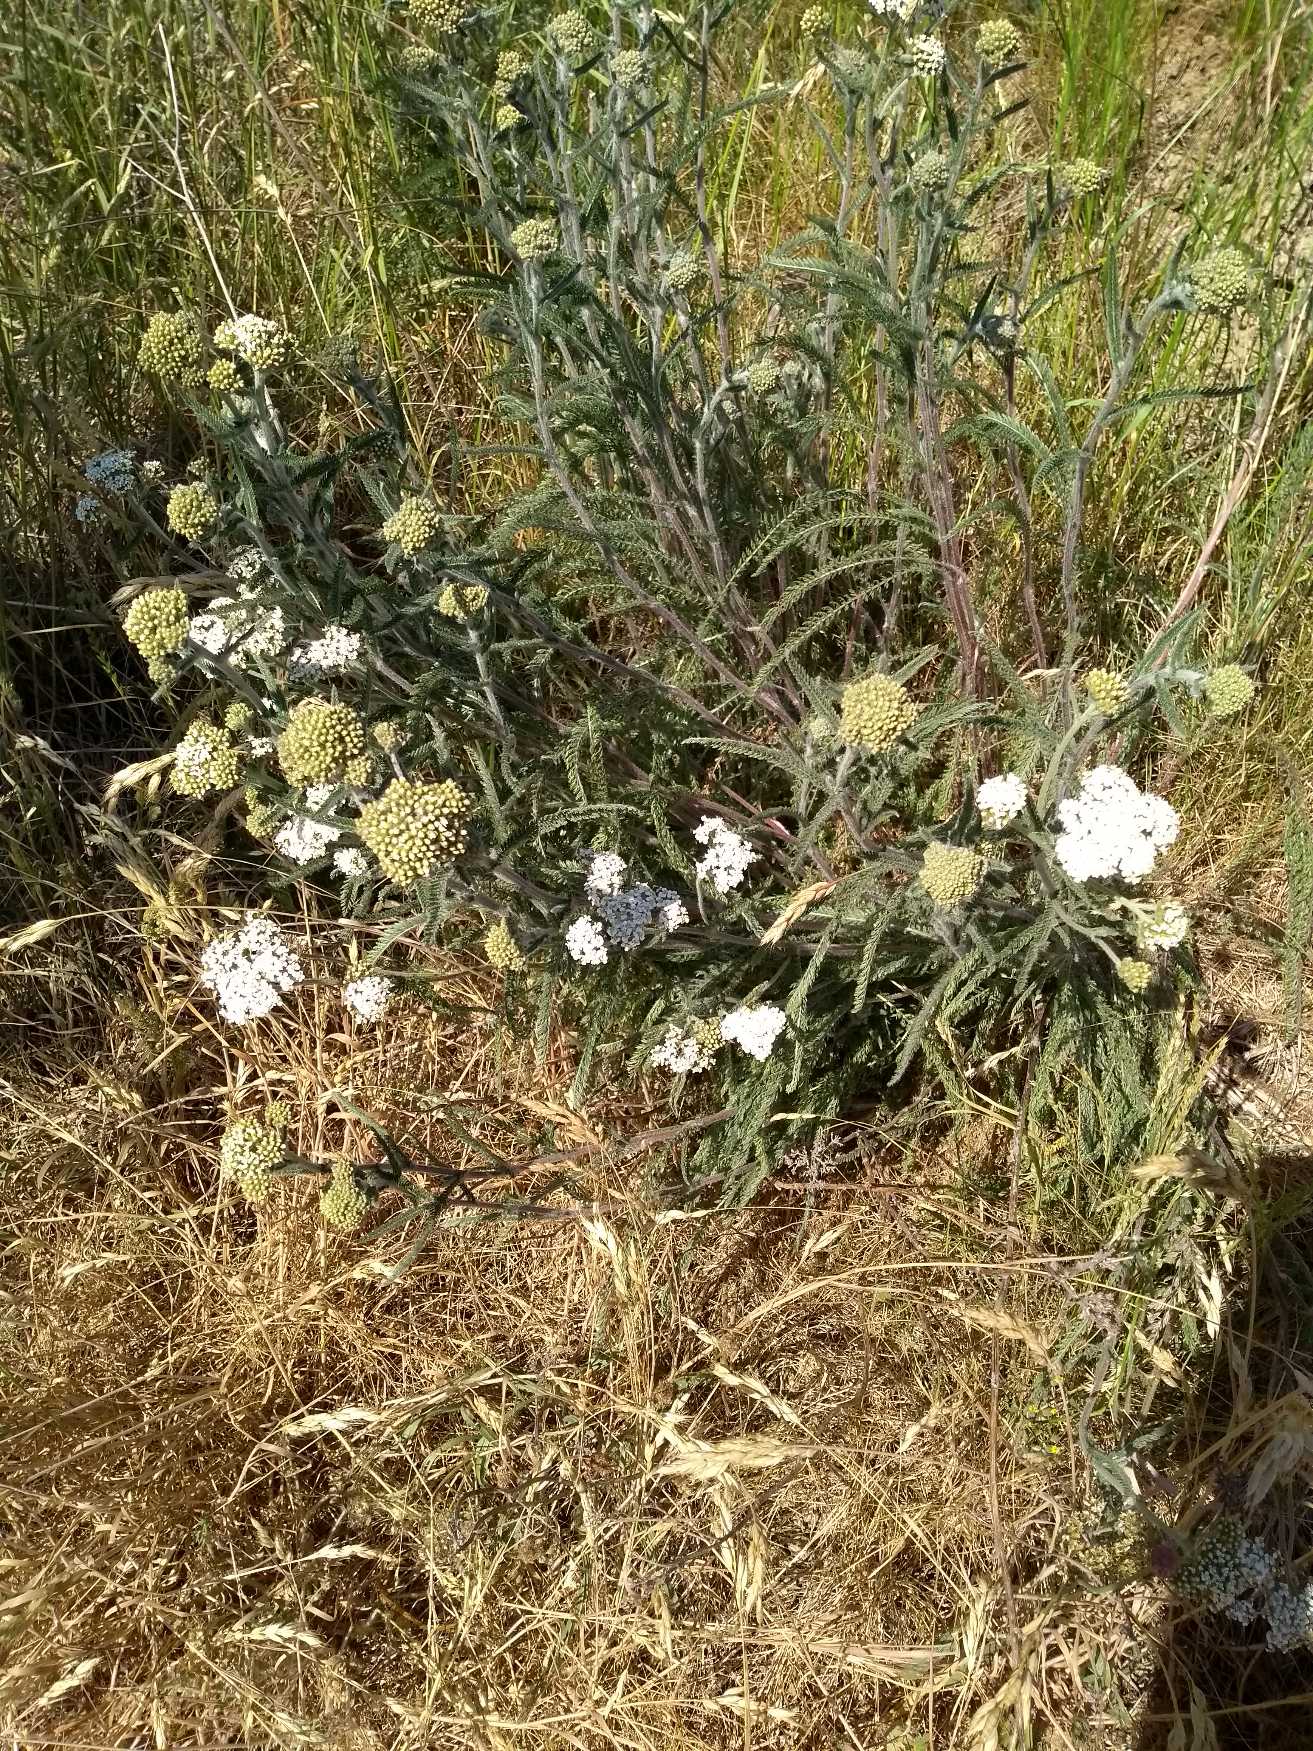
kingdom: Plantae
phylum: Tracheophyta
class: Magnoliopsida
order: Asterales
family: Asteraceae
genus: Achillea
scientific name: Achillea millefolium
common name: Almindelig røllike
